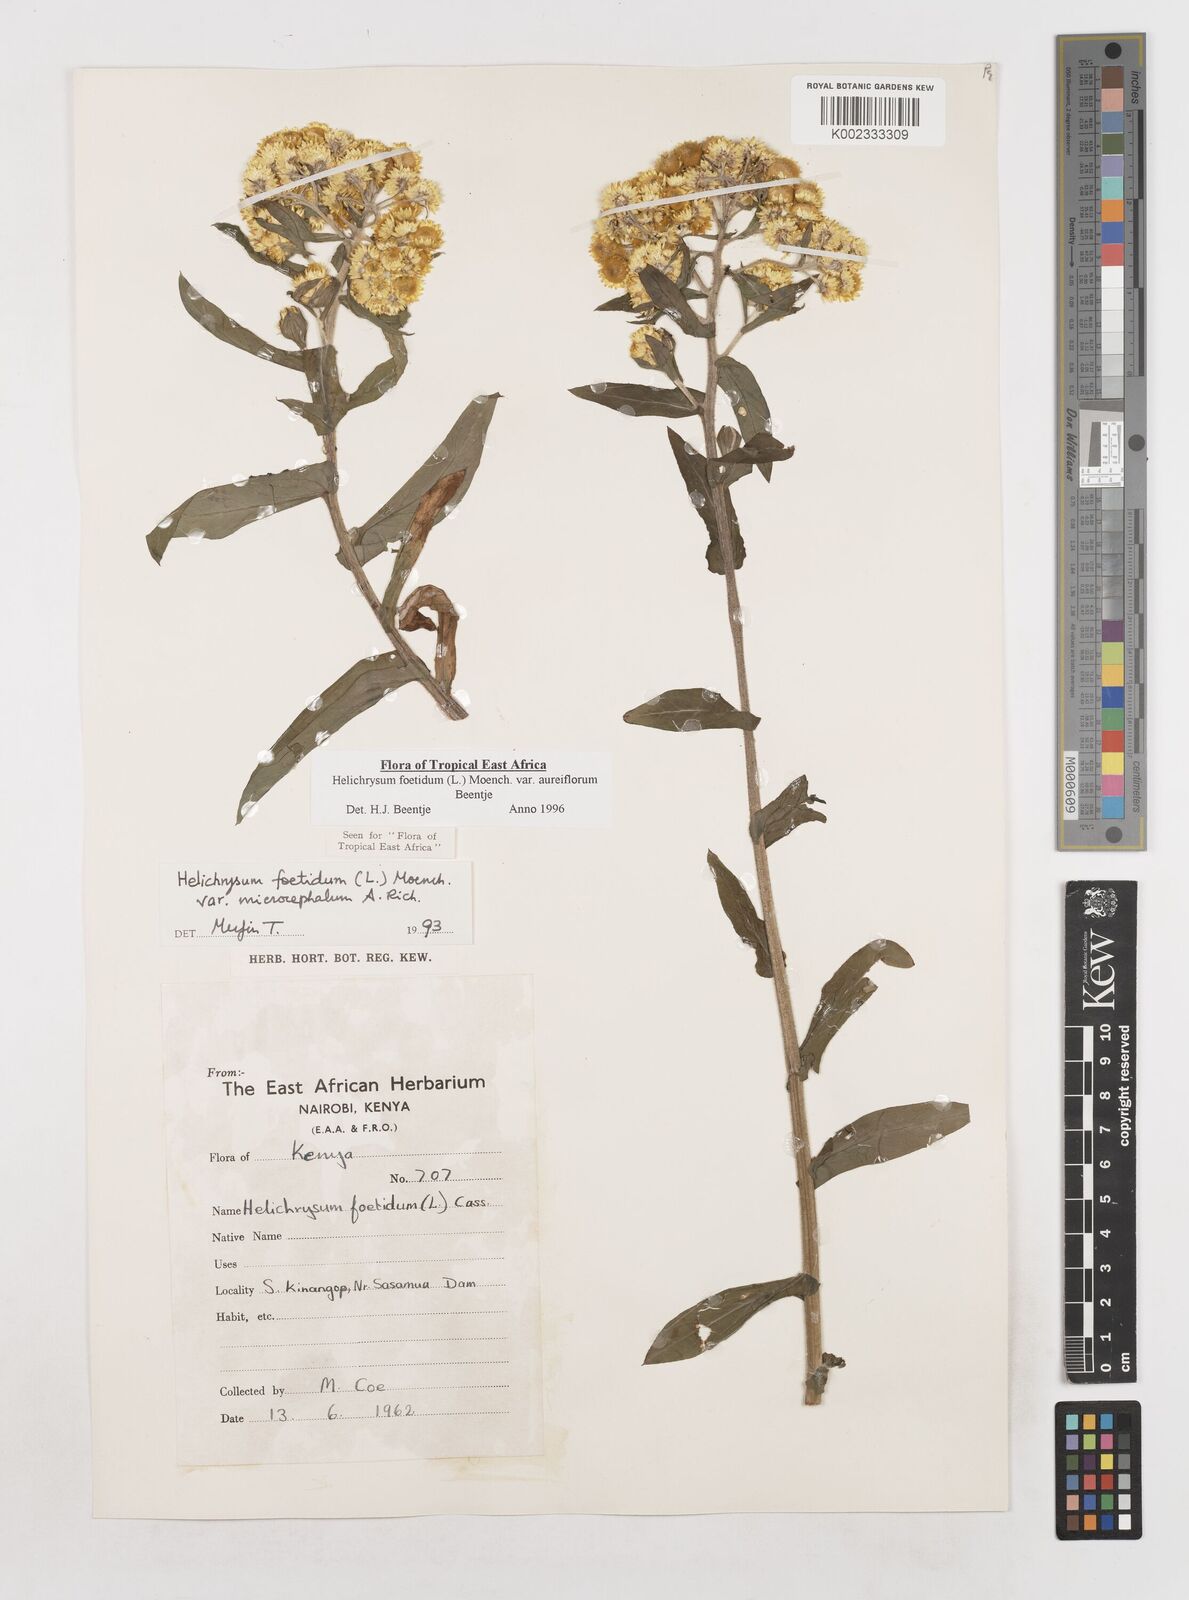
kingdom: Plantae
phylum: Tracheophyta
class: Magnoliopsida
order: Asterales
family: Asteraceae
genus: Helichrysum
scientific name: Helichrysum foetidum
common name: Stinking everlasting
